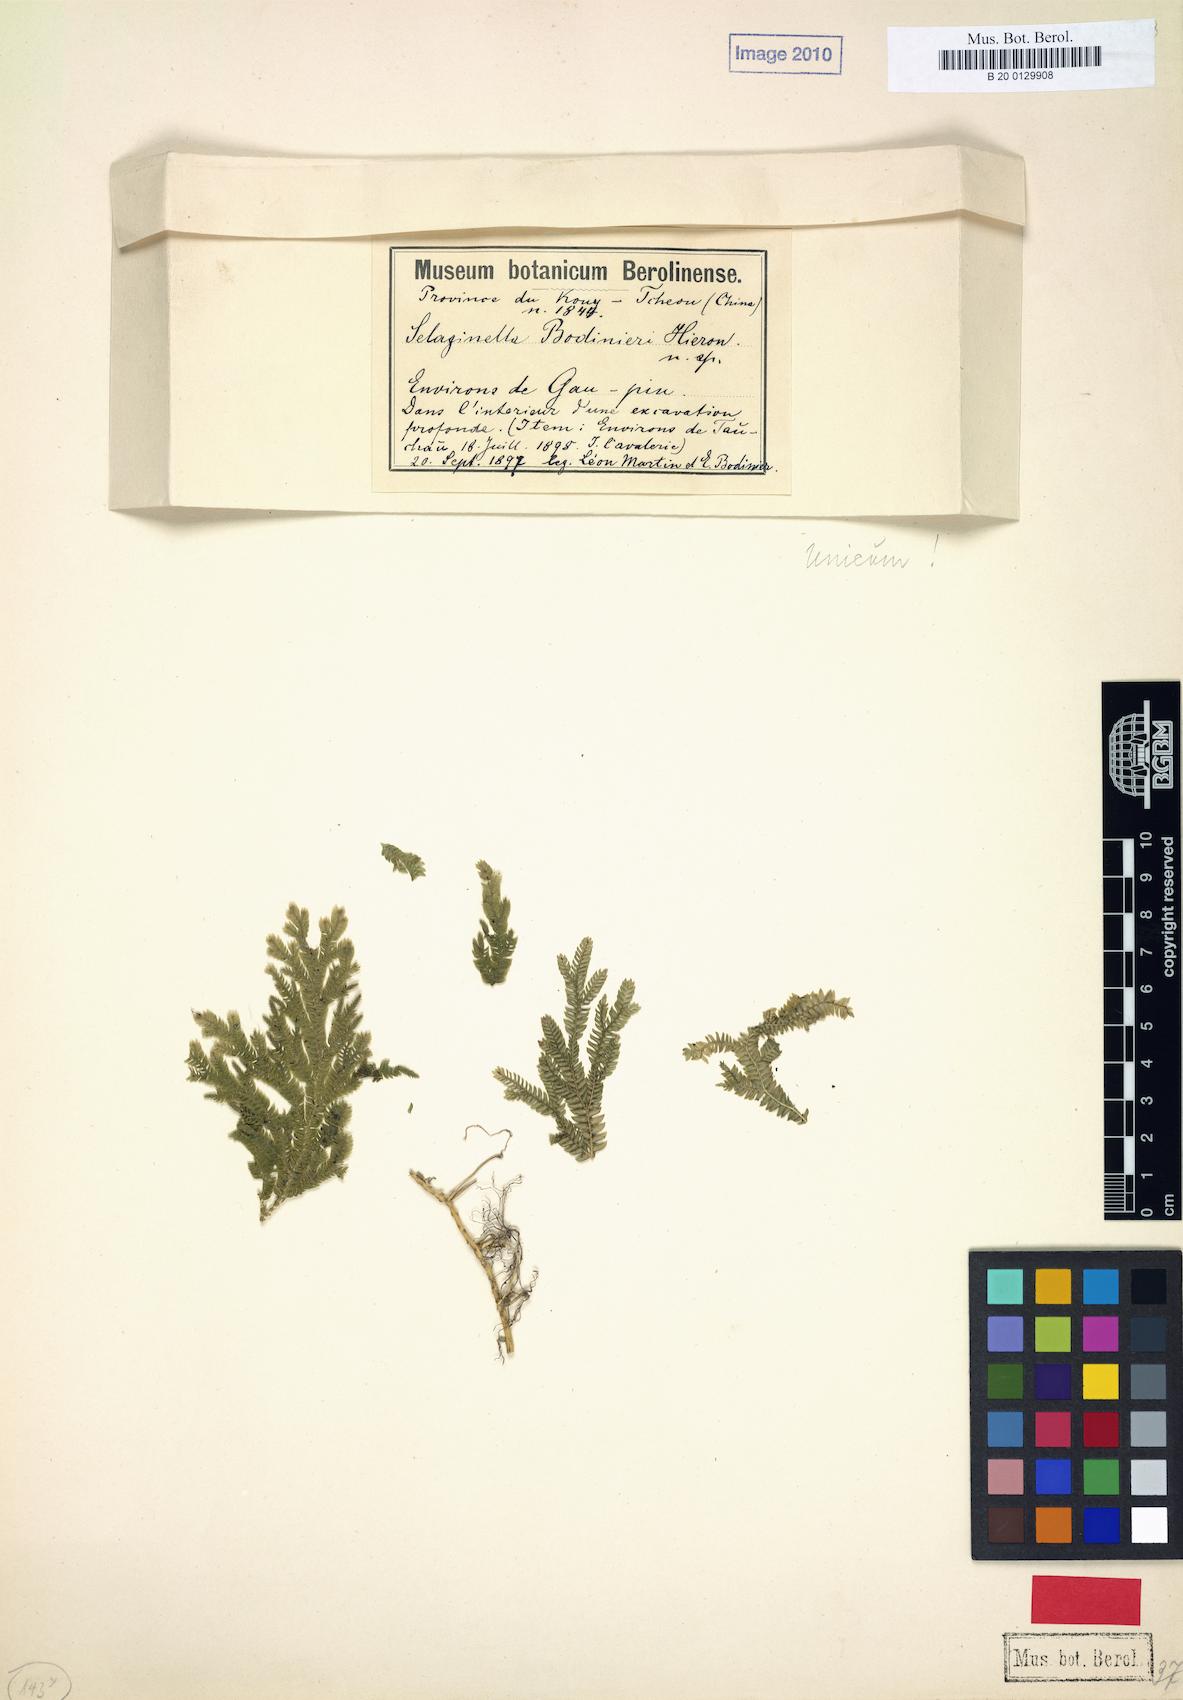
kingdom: Plantae
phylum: Tracheophyta
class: Lycopodiopsida
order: Selaginellales
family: Selaginellaceae
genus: Selaginella
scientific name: Selaginella bodinieri
